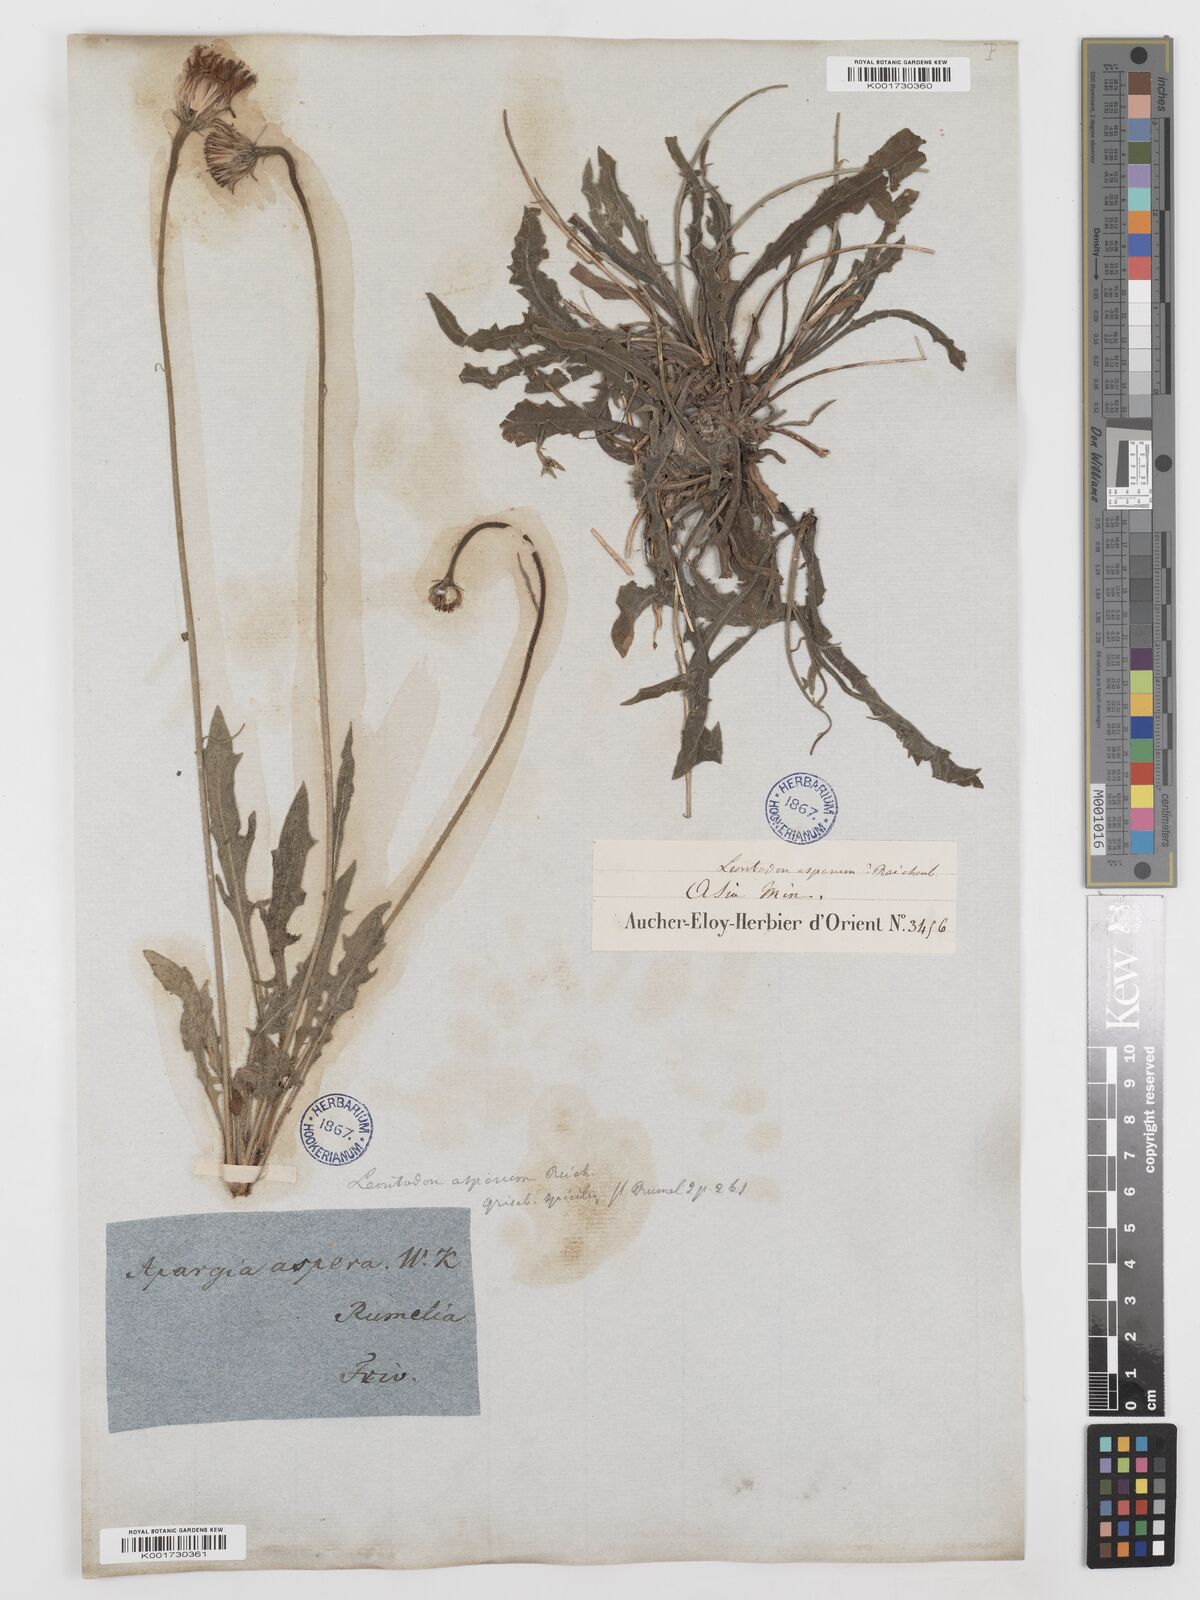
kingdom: Plantae
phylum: Tracheophyta
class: Magnoliopsida
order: Asterales
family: Asteraceae
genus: Leontodon
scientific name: Leontodon
